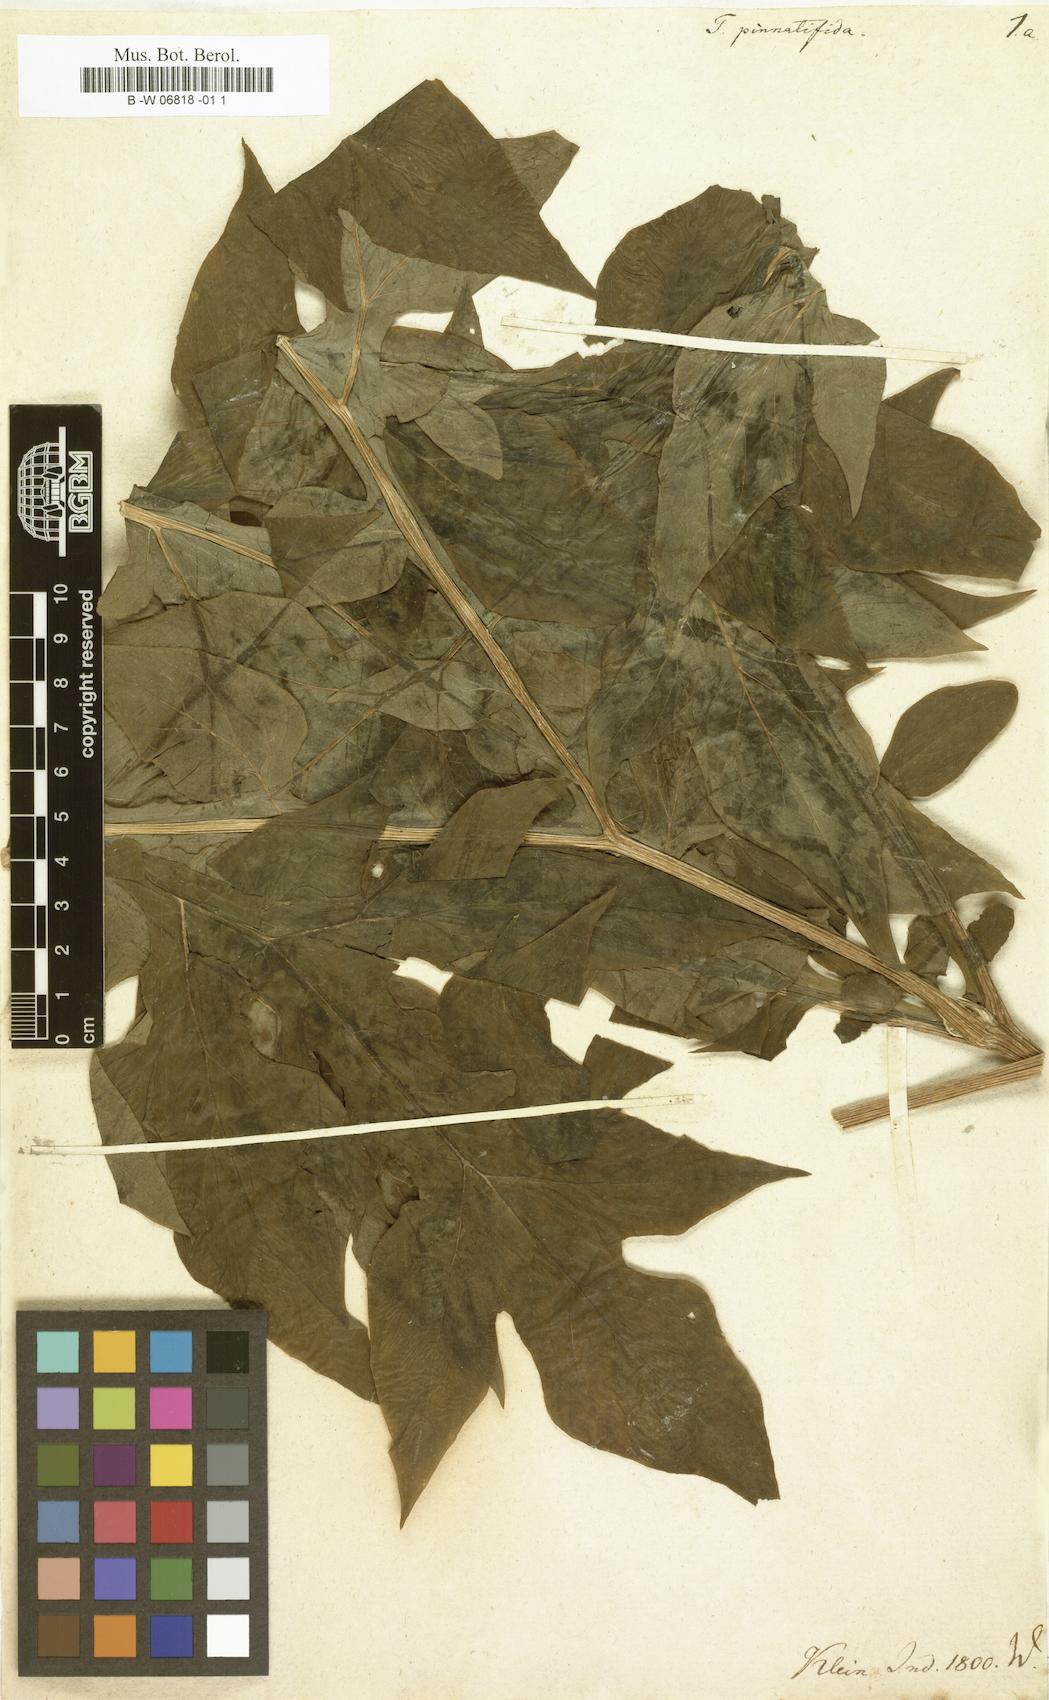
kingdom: Plantae
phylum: Tracheophyta
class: Liliopsida
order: Dioscoreales
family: Dioscoreaceae
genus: Tacca
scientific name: Tacca leontopetaloides
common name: Arrowroot
